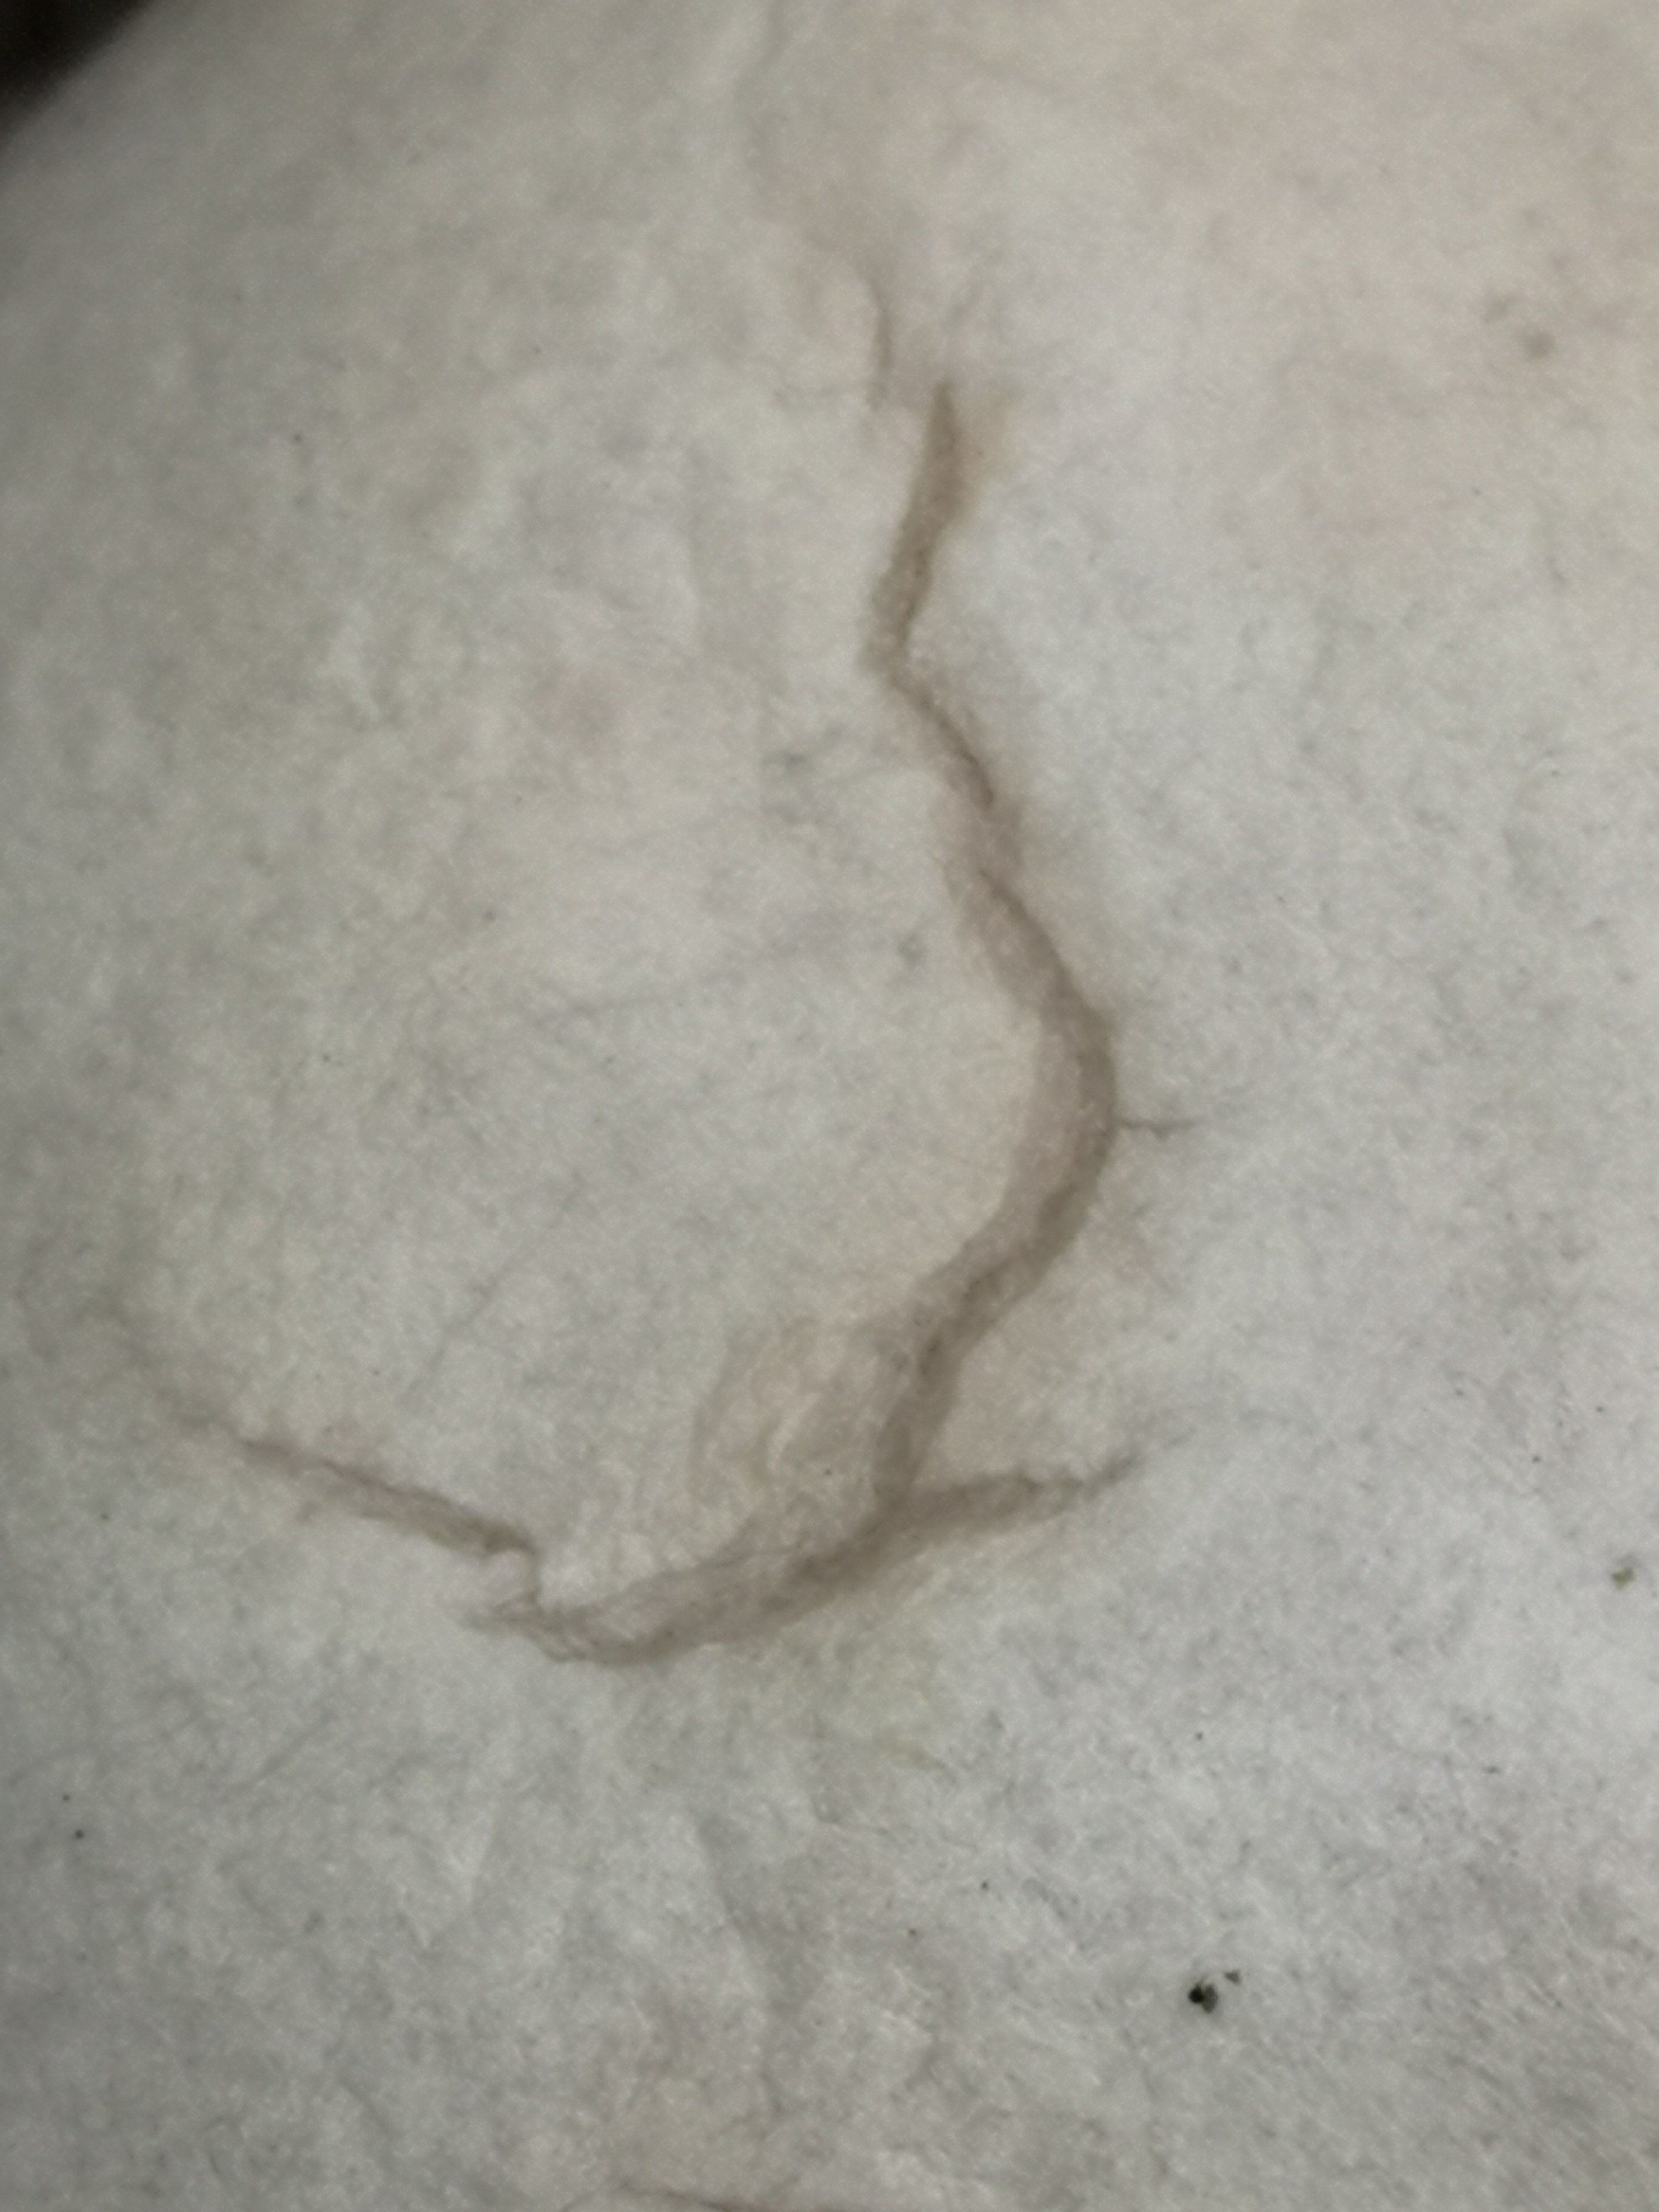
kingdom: Protozoa
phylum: Mycetozoa
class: Myxomycetes
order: Cribrariales
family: Tubiferaceae
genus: Reticularia
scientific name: Reticularia lycoperdon
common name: skinnende støvpude
